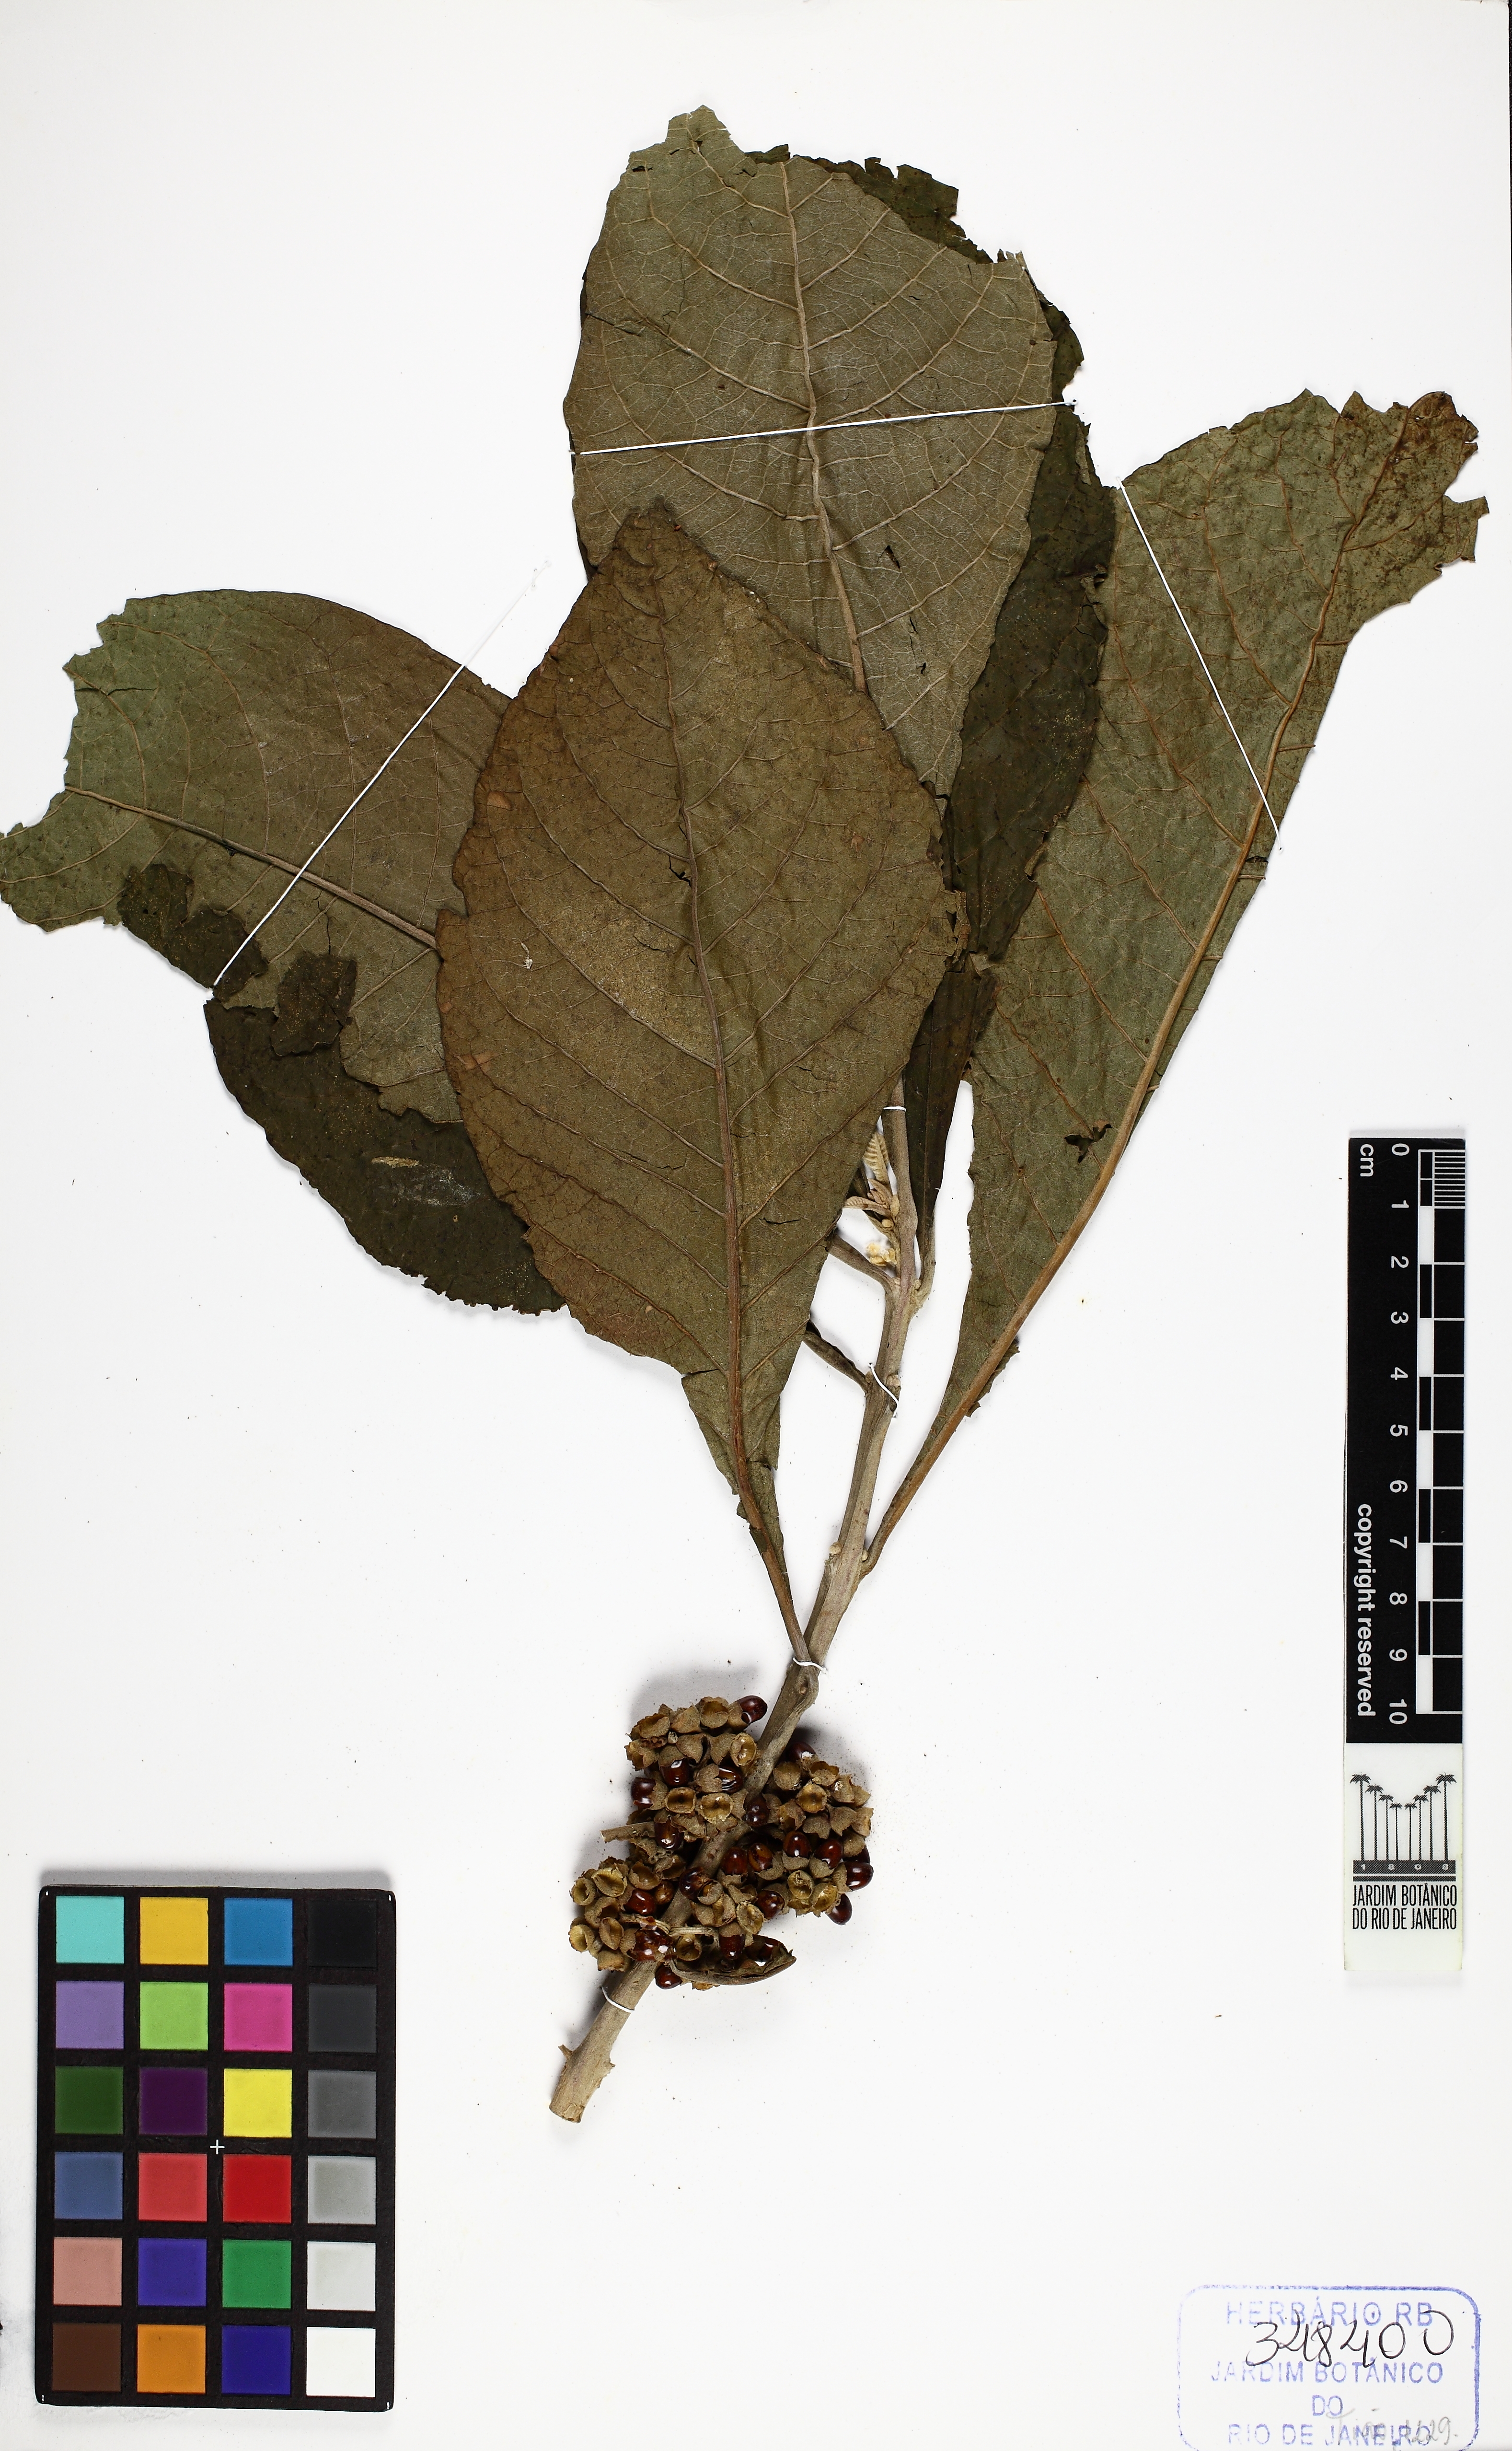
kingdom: Plantae
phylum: Tracheophyta
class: Magnoliopsida
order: Lamiales
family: Lamiaceae
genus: Aegiphila
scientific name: Aegiphila verticillata
